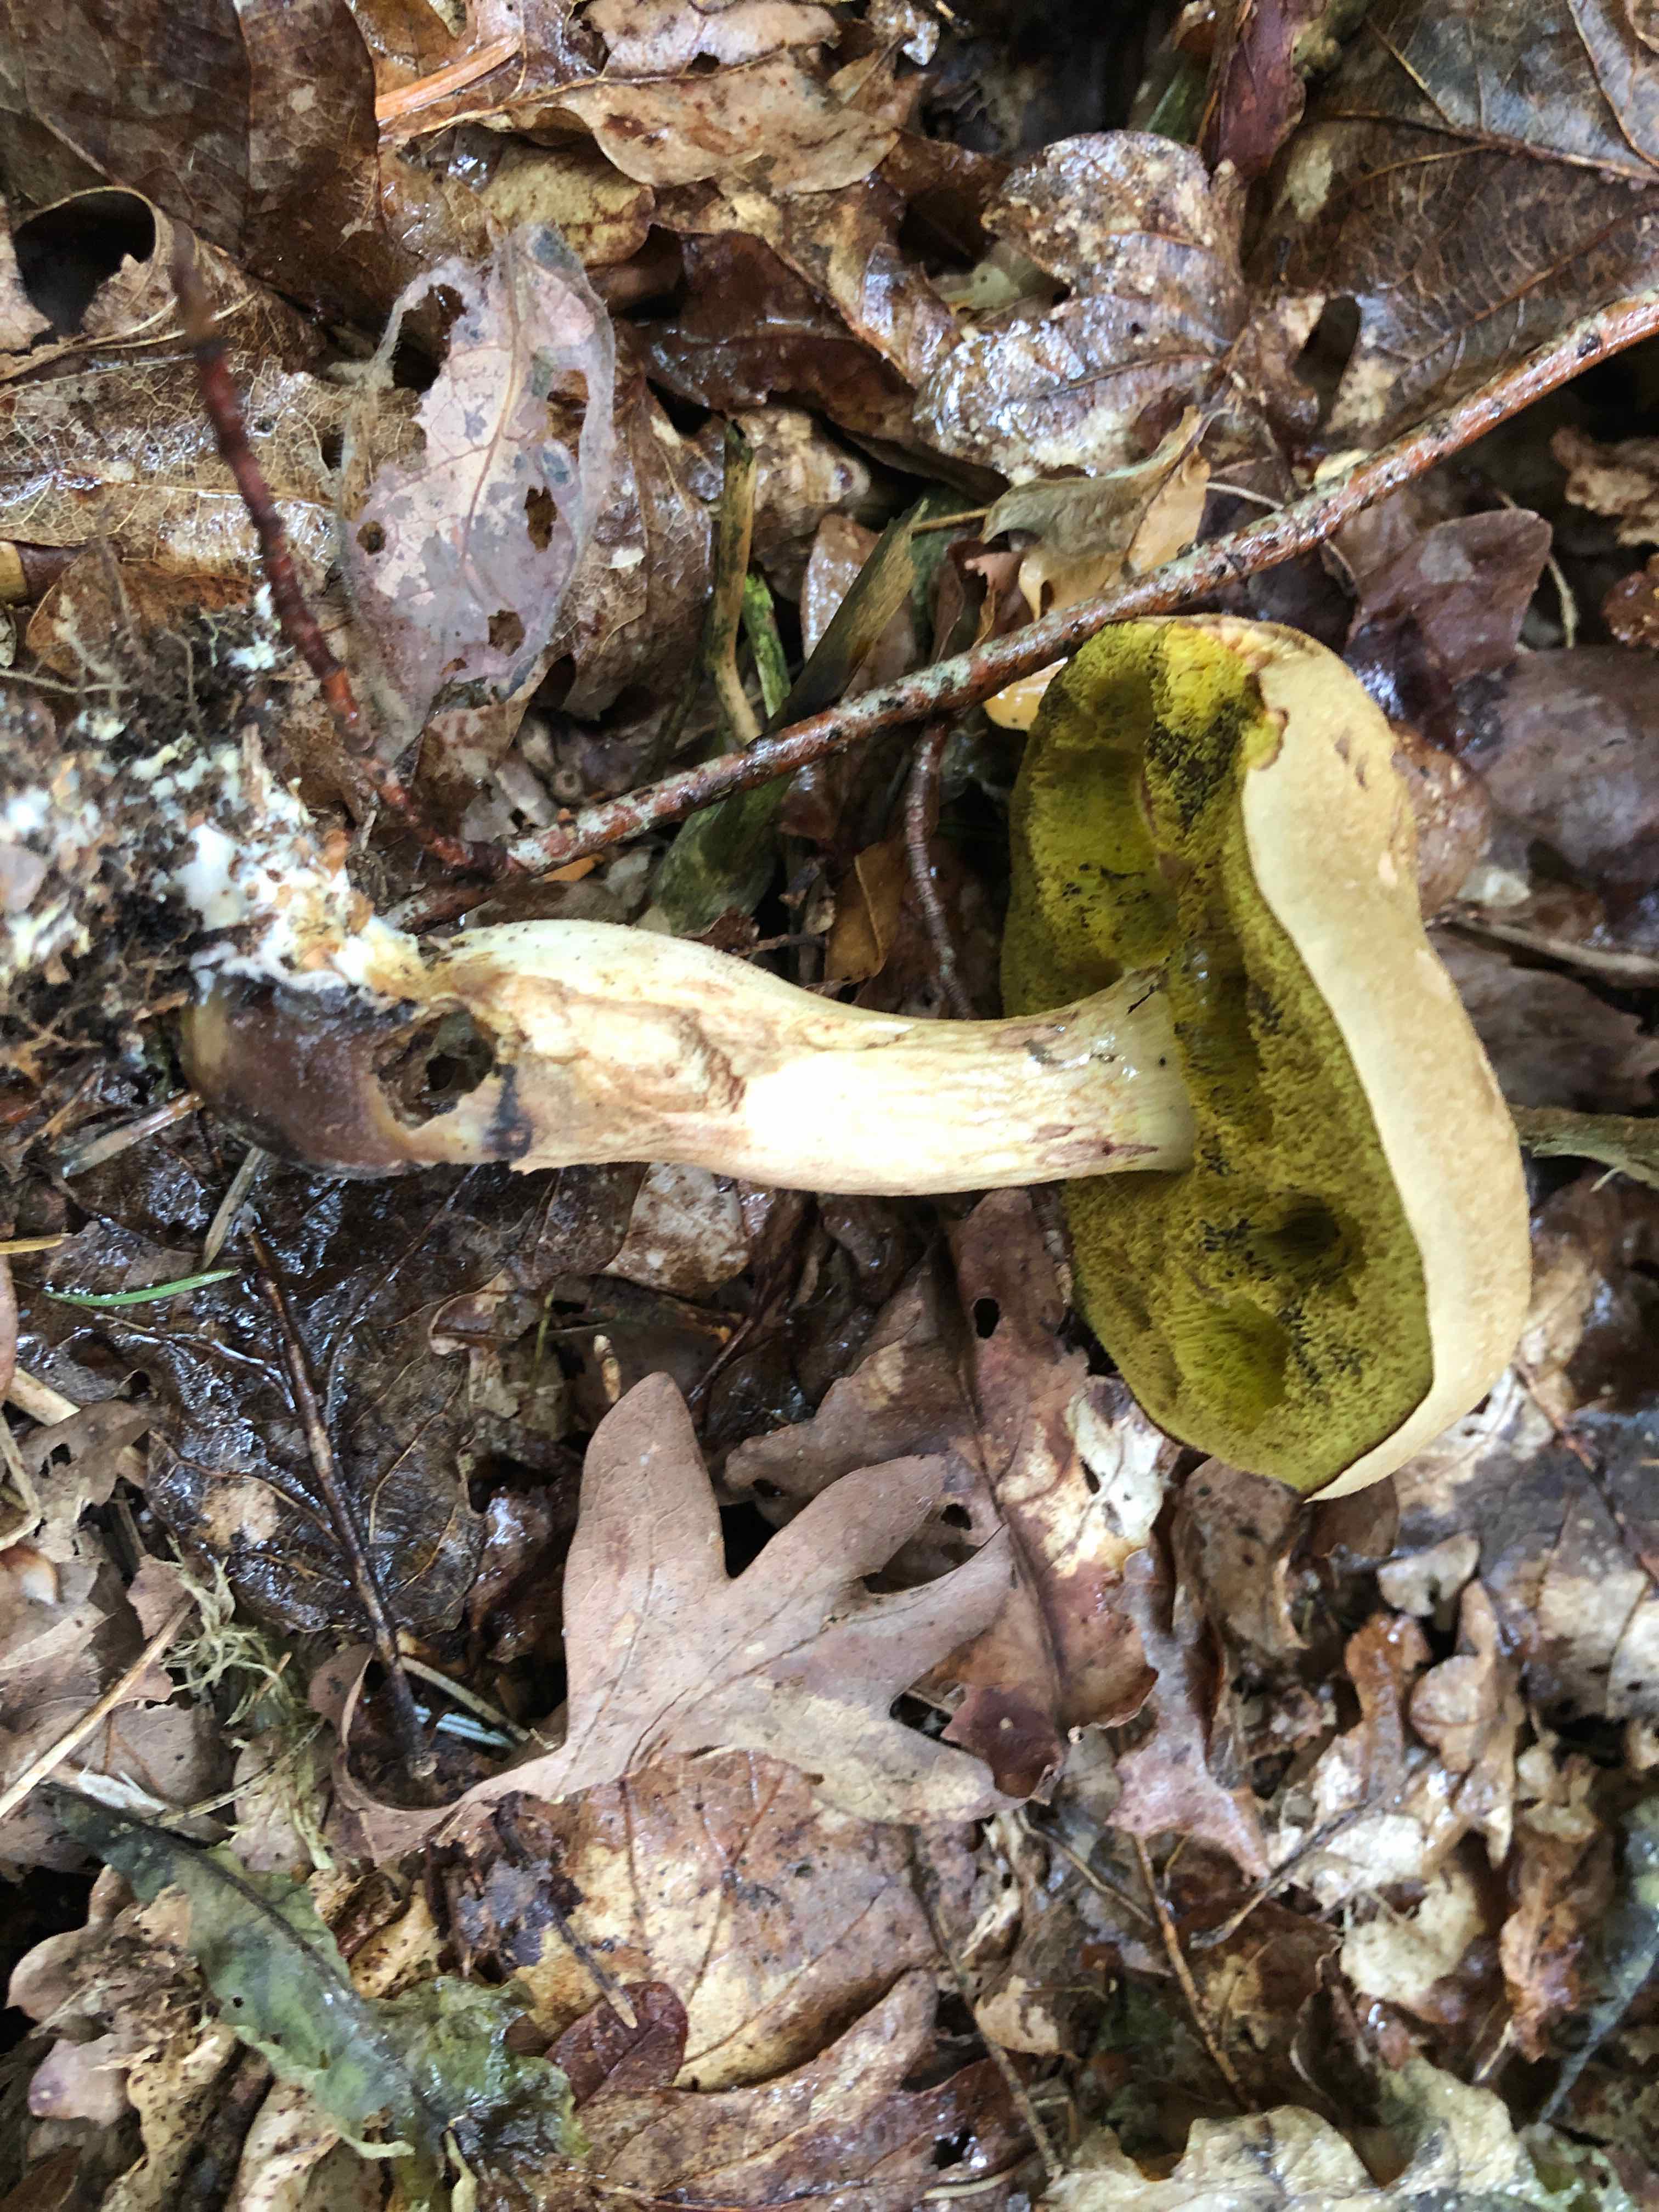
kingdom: Fungi
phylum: Basidiomycota
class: Agaricomycetes
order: Boletales
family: Boletaceae
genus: Xerocomus
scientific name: Xerocomus ferrugineus
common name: vaskeskinds-rørhat
